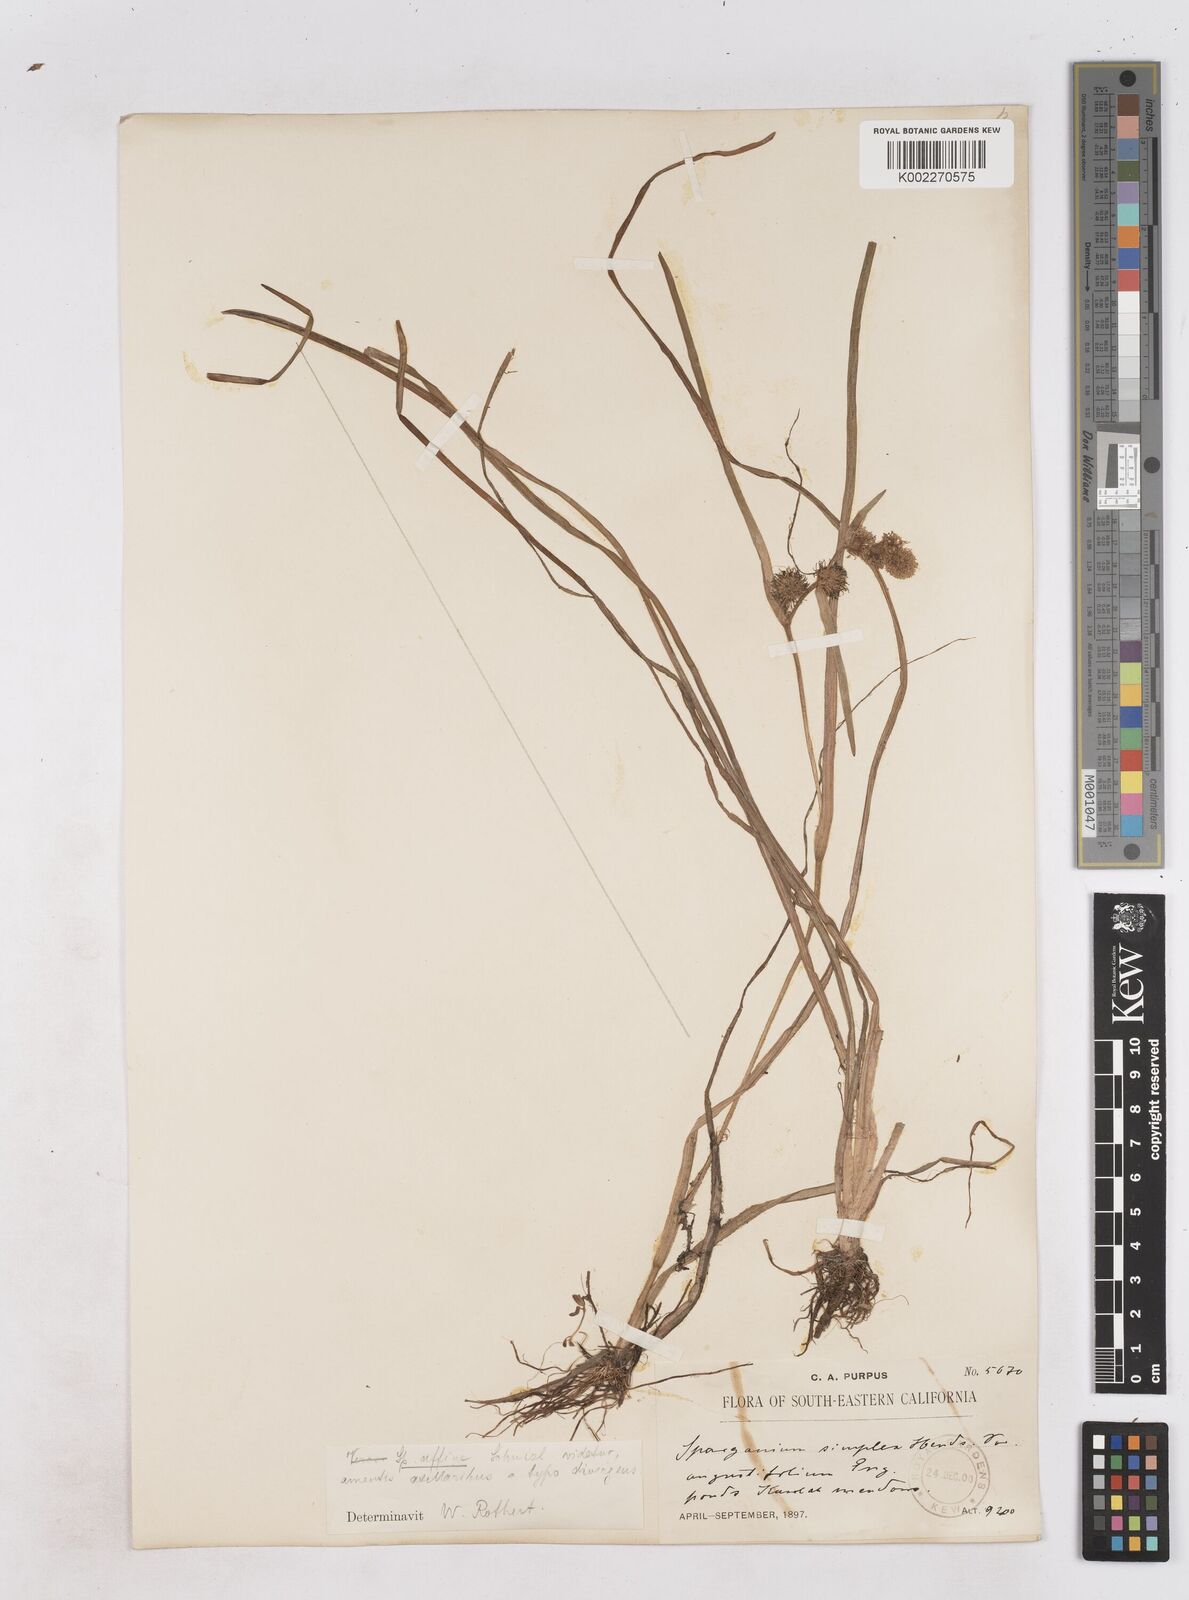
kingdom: Plantae
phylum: Tracheophyta
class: Liliopsida
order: Poales
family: Typhaceae
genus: Sparganium
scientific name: Sparganium angustifolium
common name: Floating bur-reed
